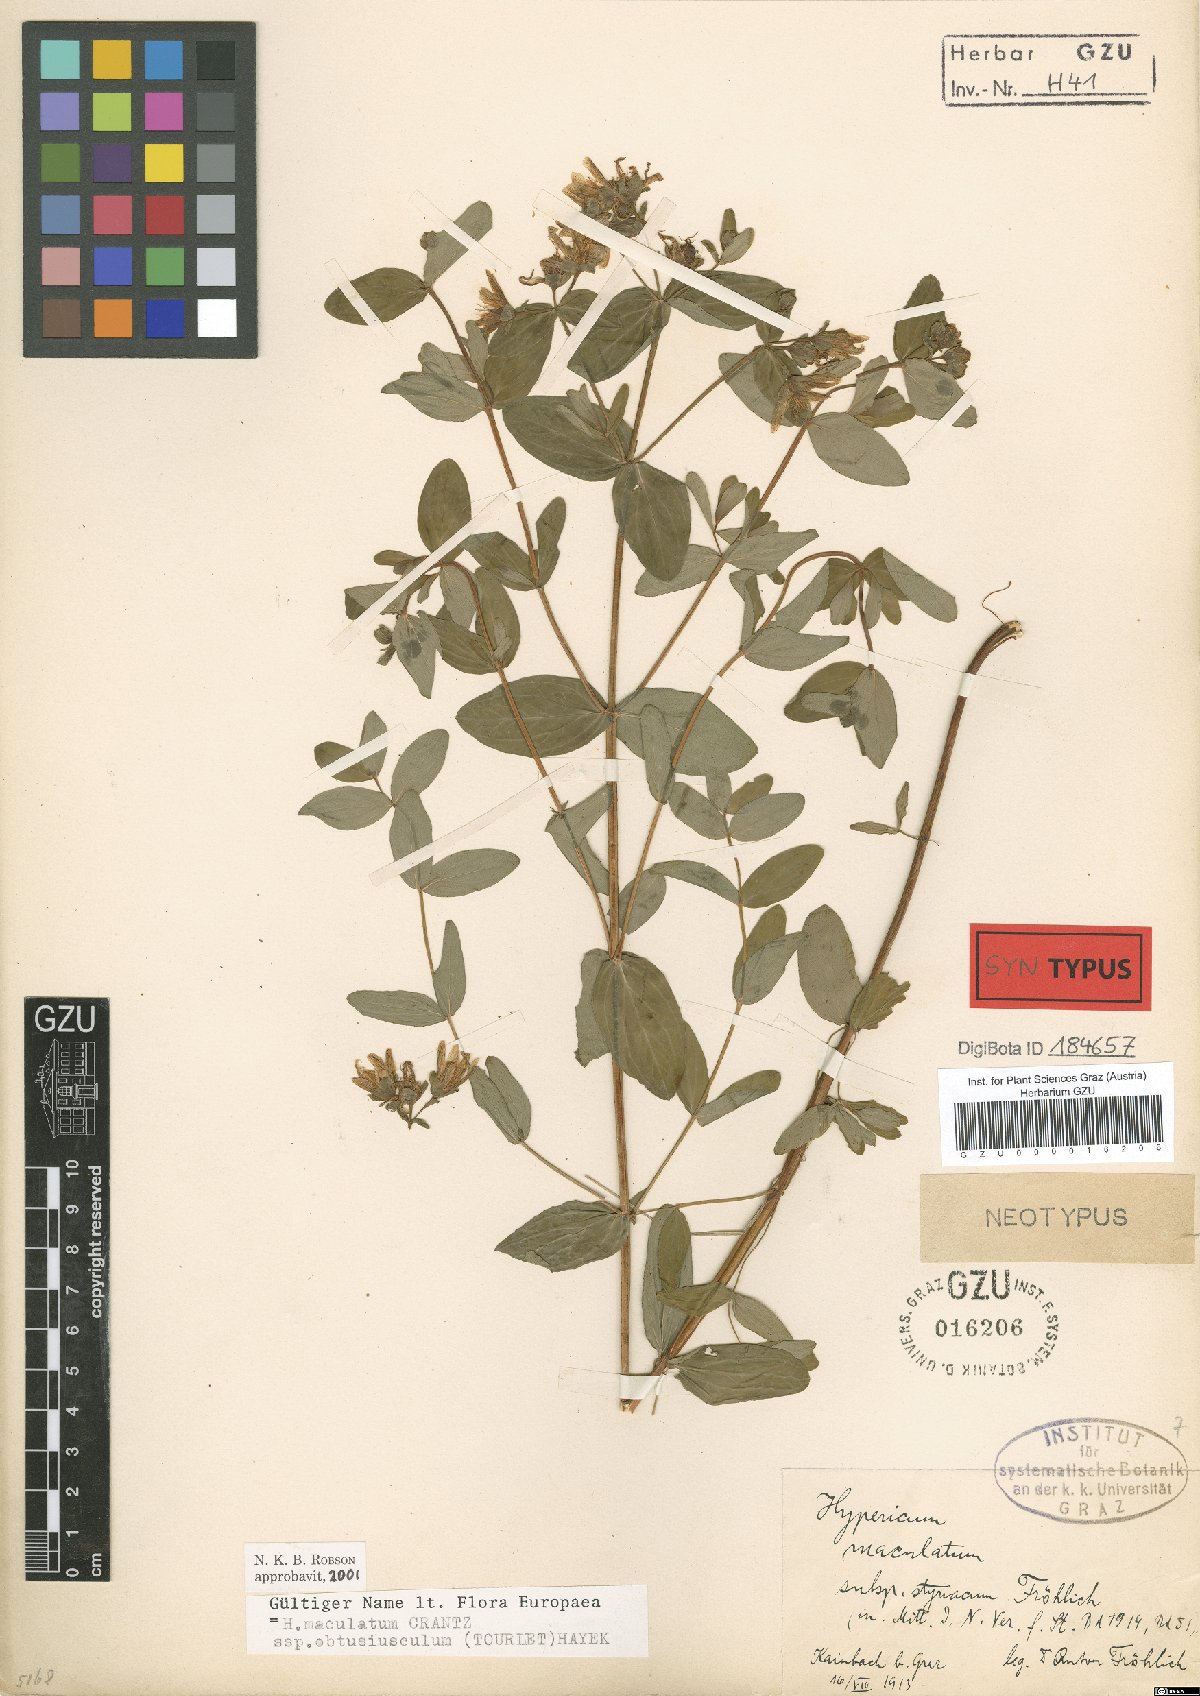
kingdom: Plantae
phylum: Tracheophyta
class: Magnoliopsida
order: Malpighiales
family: Hypericaceae
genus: Hypericum
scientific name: Hypericum dubium
